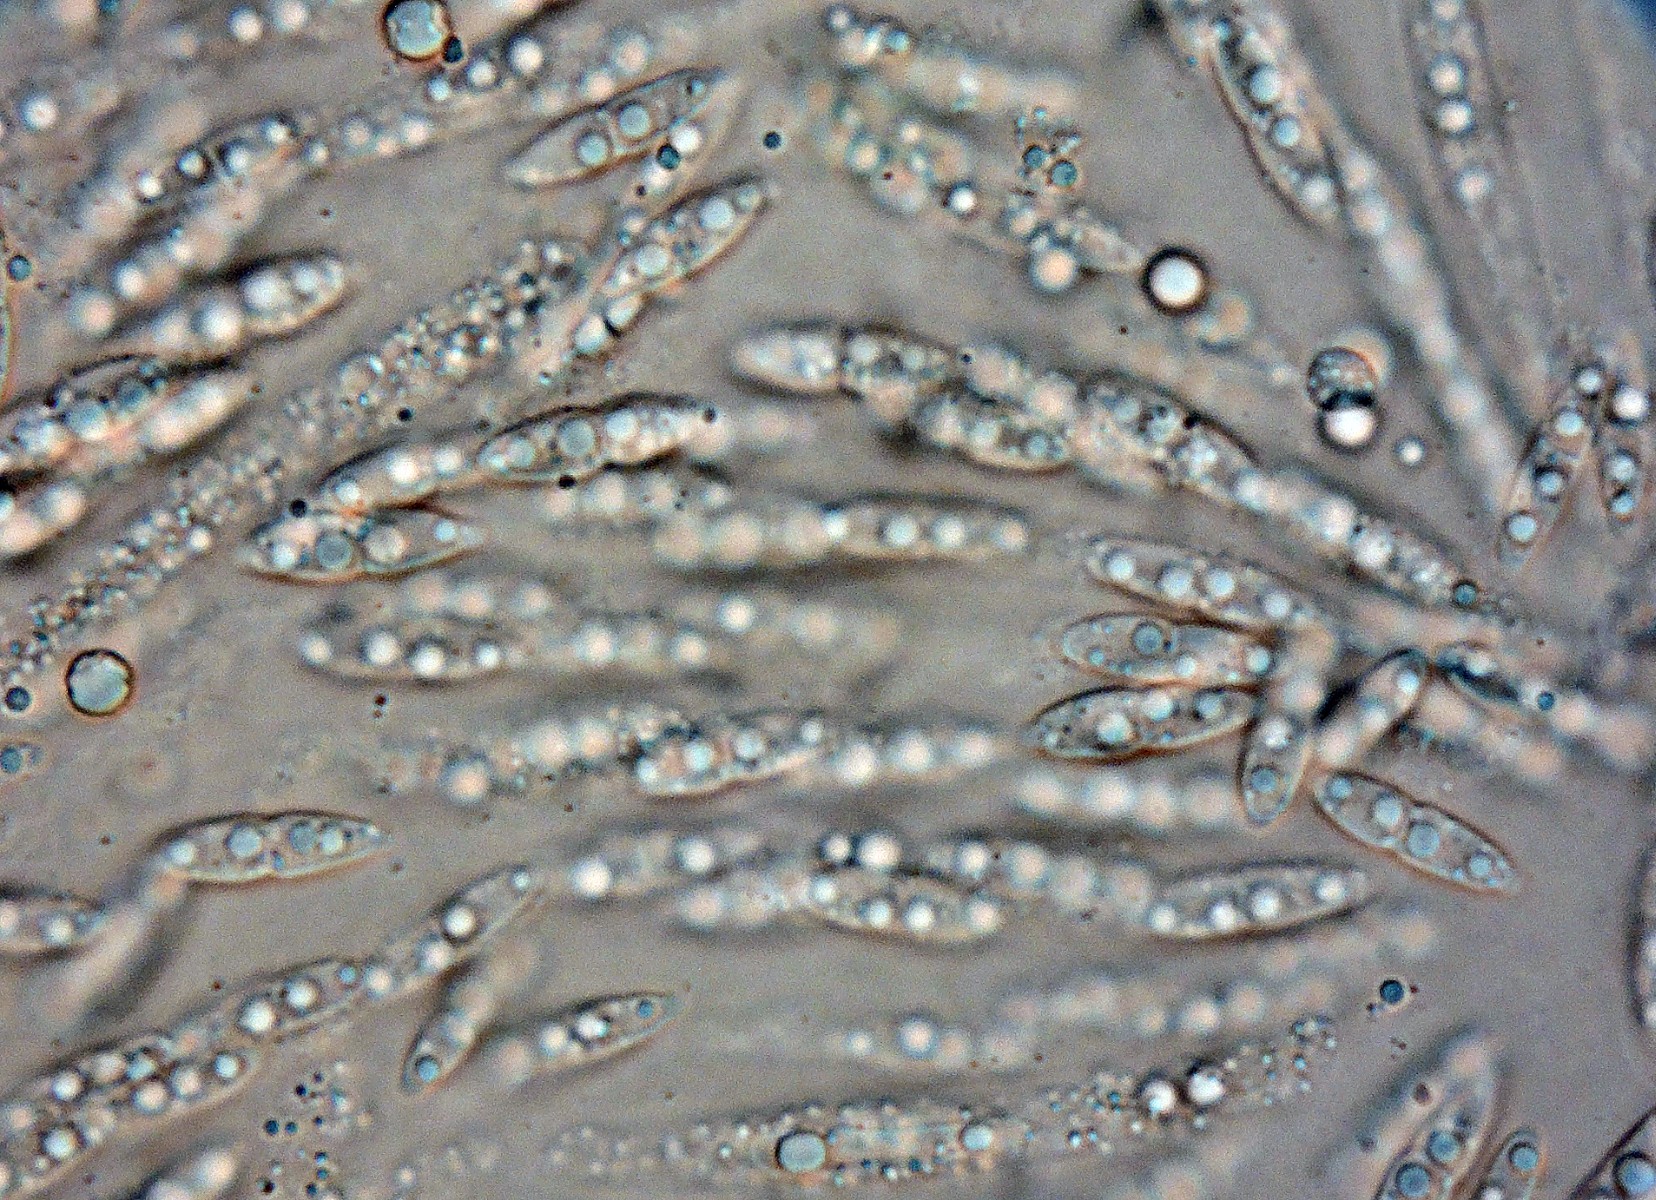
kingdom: Fungi
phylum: Ascomycota
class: Sordariomycetes
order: Diaporthales
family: Diaporthaceae
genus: Diaporthe
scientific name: Diaporthe scobina
